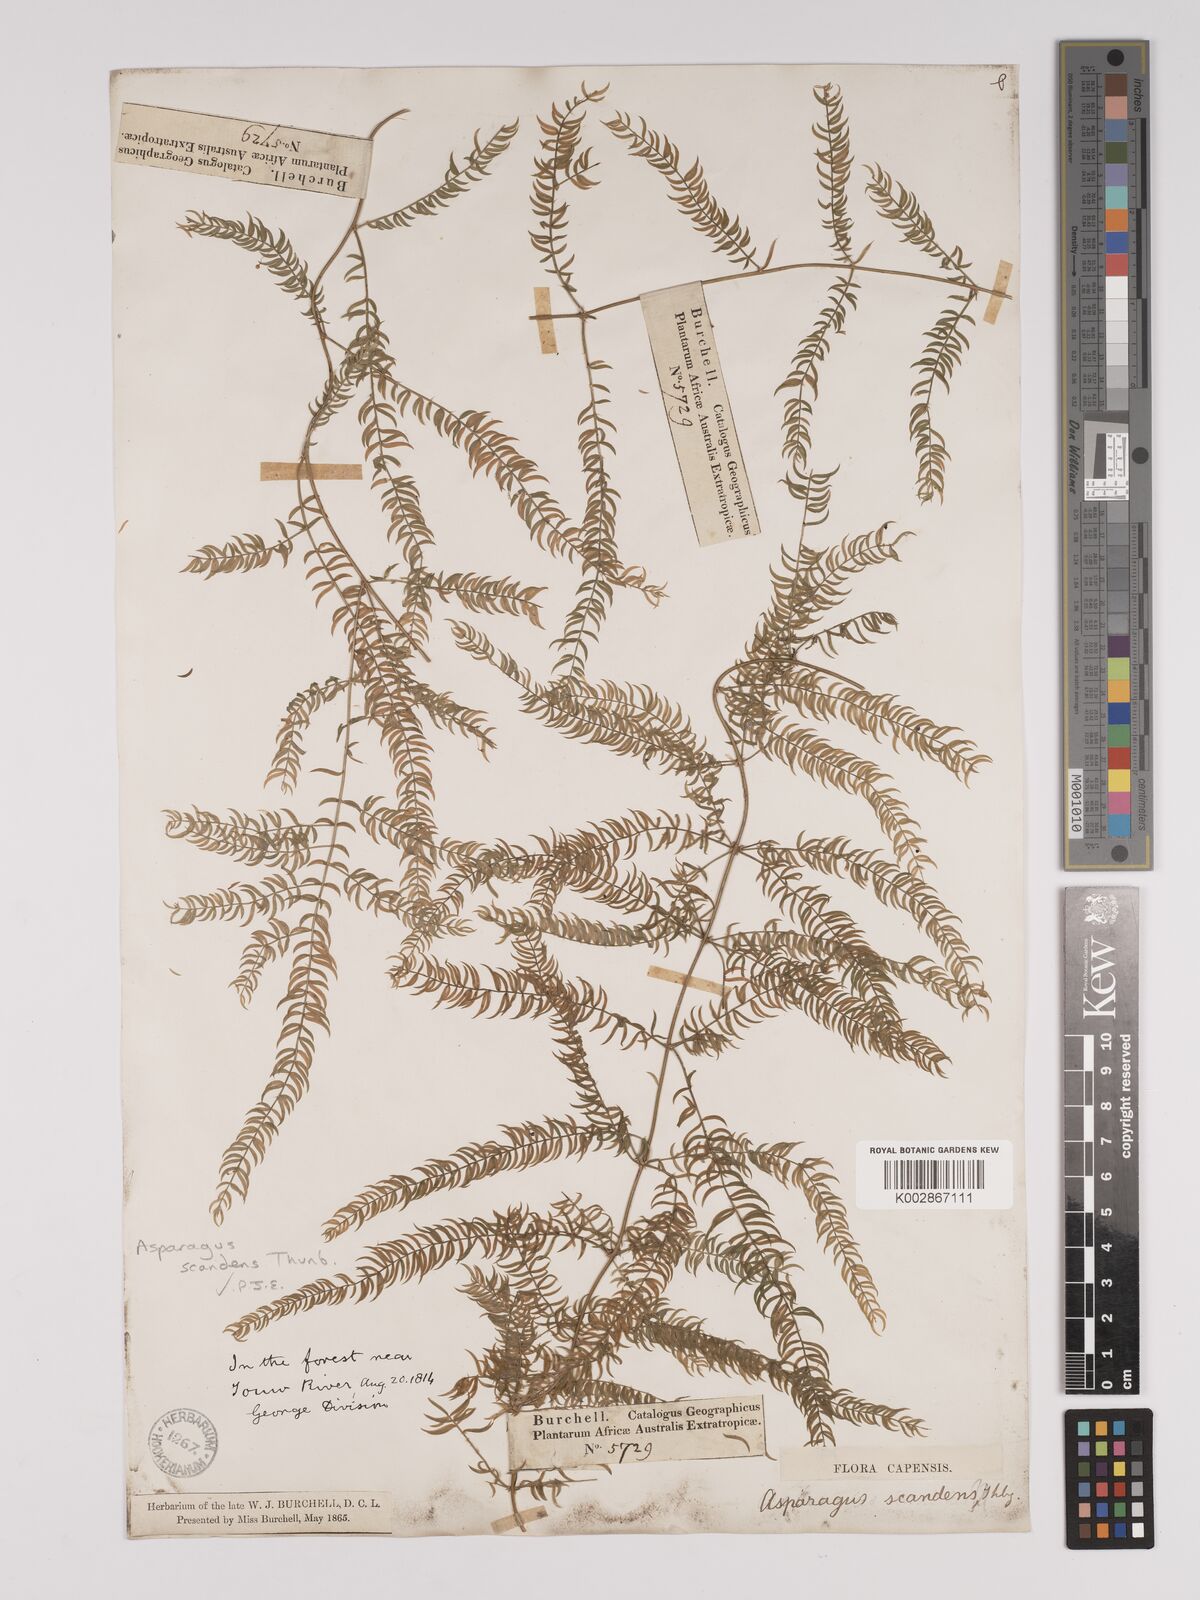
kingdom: Plantae
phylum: Tracheophyta
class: Liliopsida
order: Asparagales
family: Asparagaceae
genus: Asparagus
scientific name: Asparagus scandens
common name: Asparagus-fern
